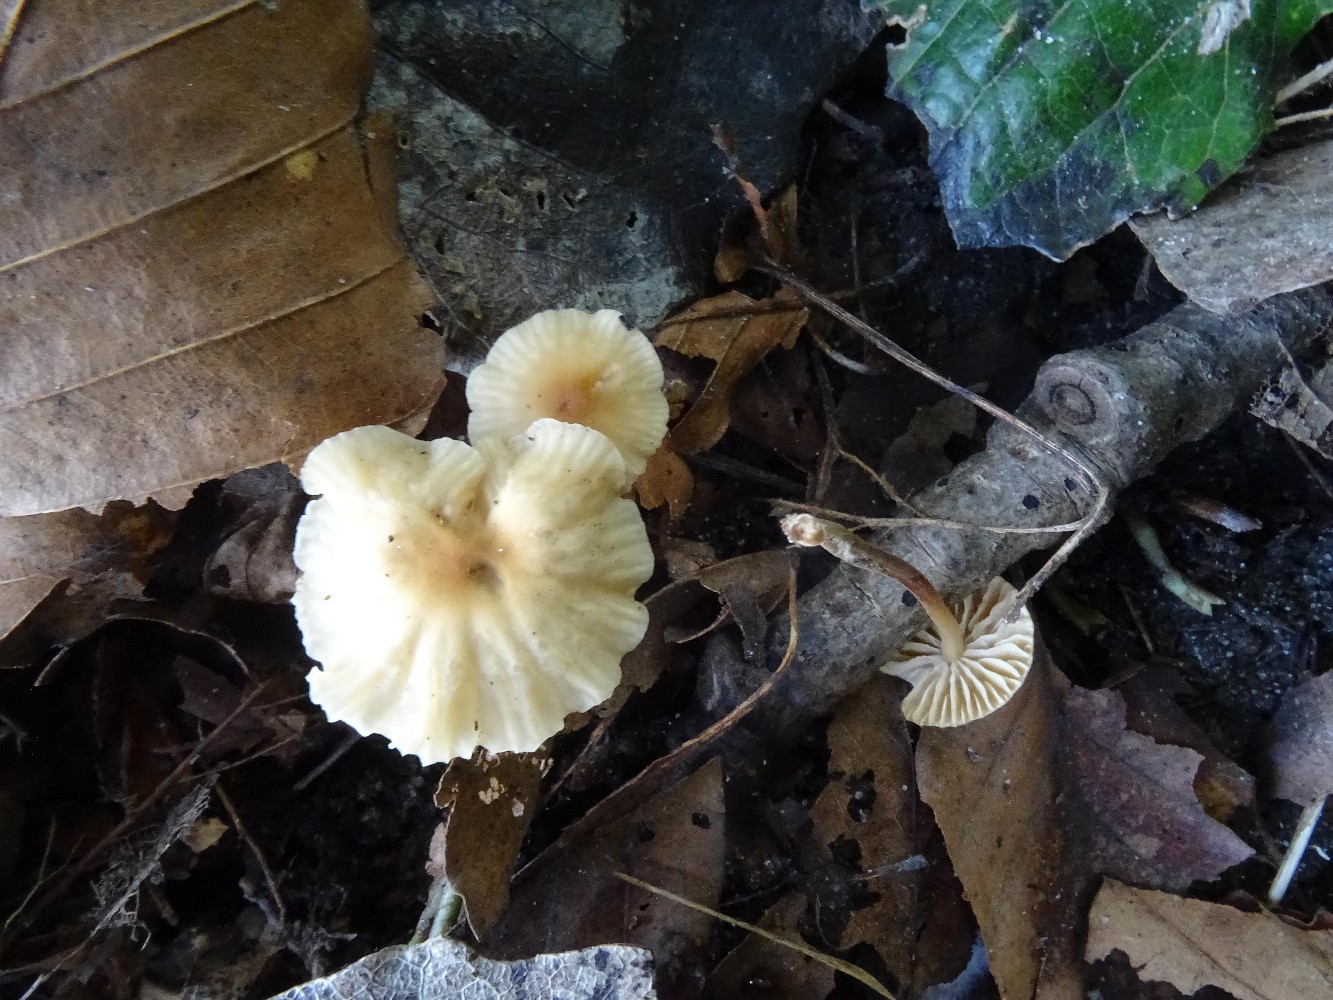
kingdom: Fungi
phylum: Basidiomycota
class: Agaricomycetes
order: Agaricales
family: Marasmiaceae
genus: Marasmius
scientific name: Marasmius torquescens
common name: filtfodet bruskhat
